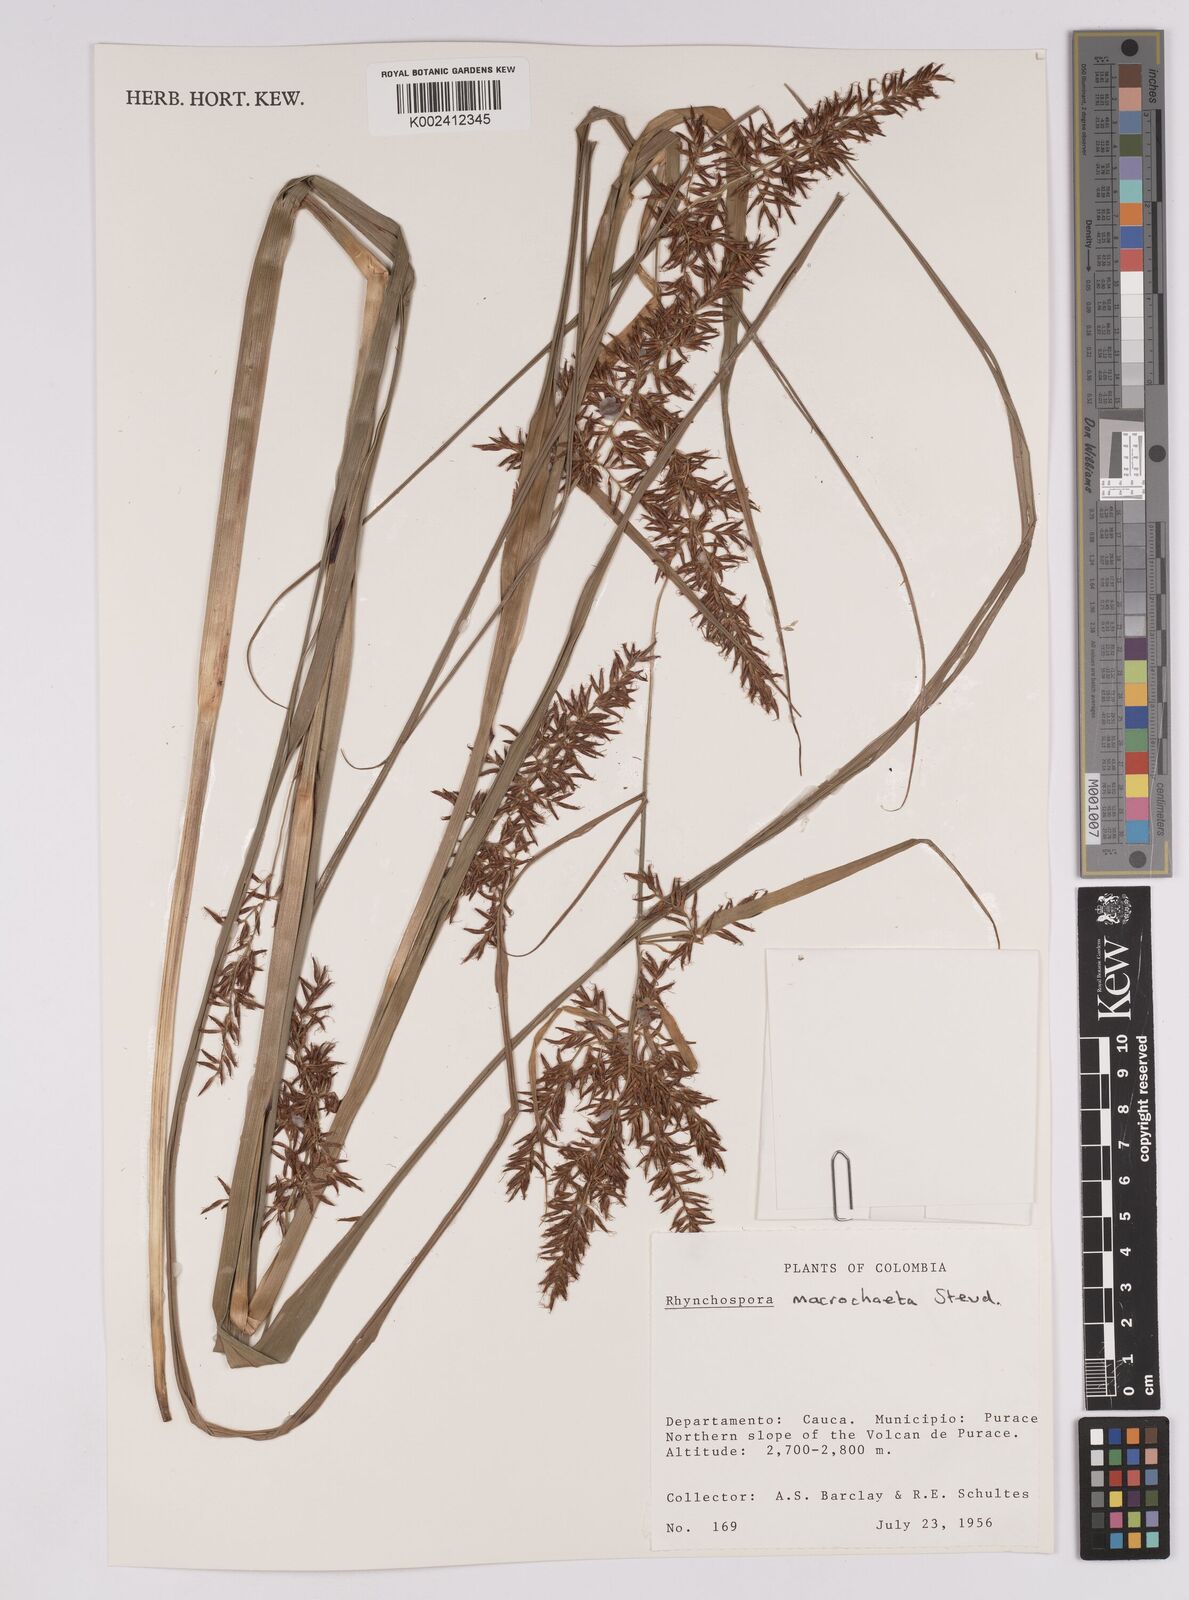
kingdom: Plantae
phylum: Tracheophyta
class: Liliopsida
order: Poales
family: Cyperaceae
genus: Rhynchospora
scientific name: Rhynchospora macrochaeta
